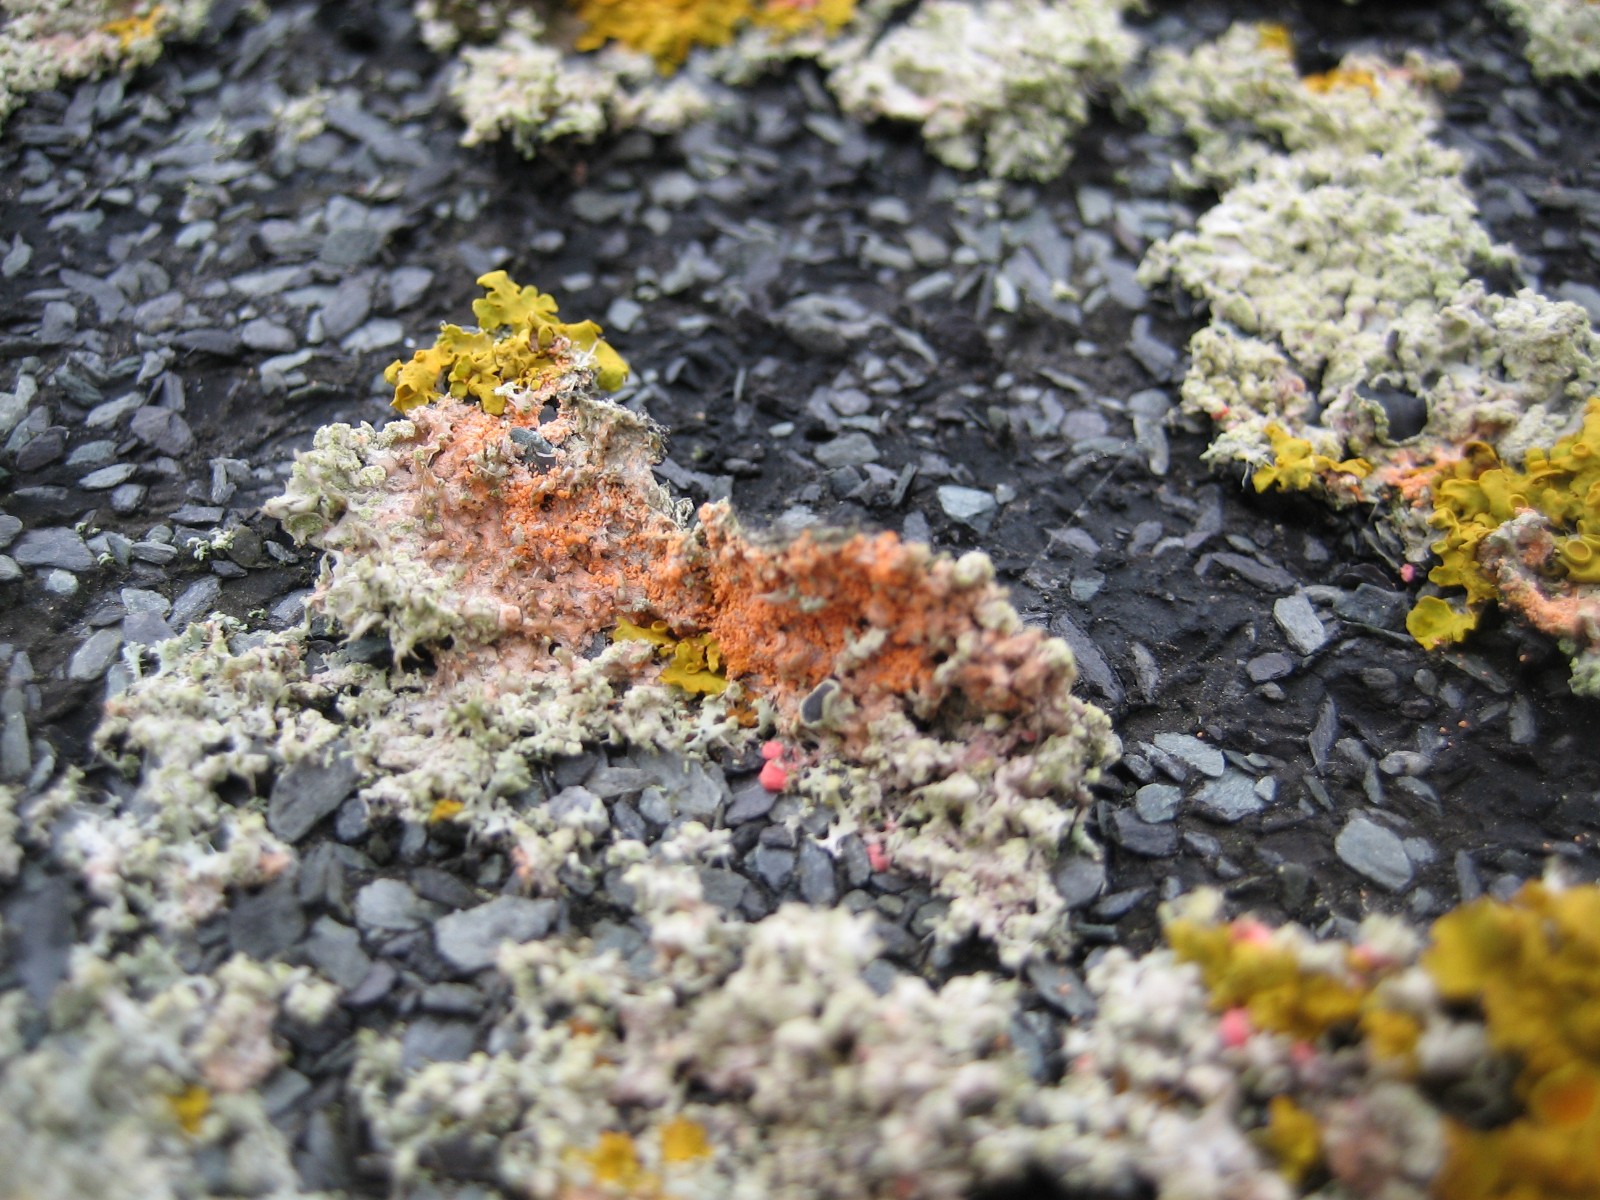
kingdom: Fungi
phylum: Basidiomycota
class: Agaricomycetes
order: Corticiales
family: Corticiaceae
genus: Erythricium
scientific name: Erythricium aurantiacum
